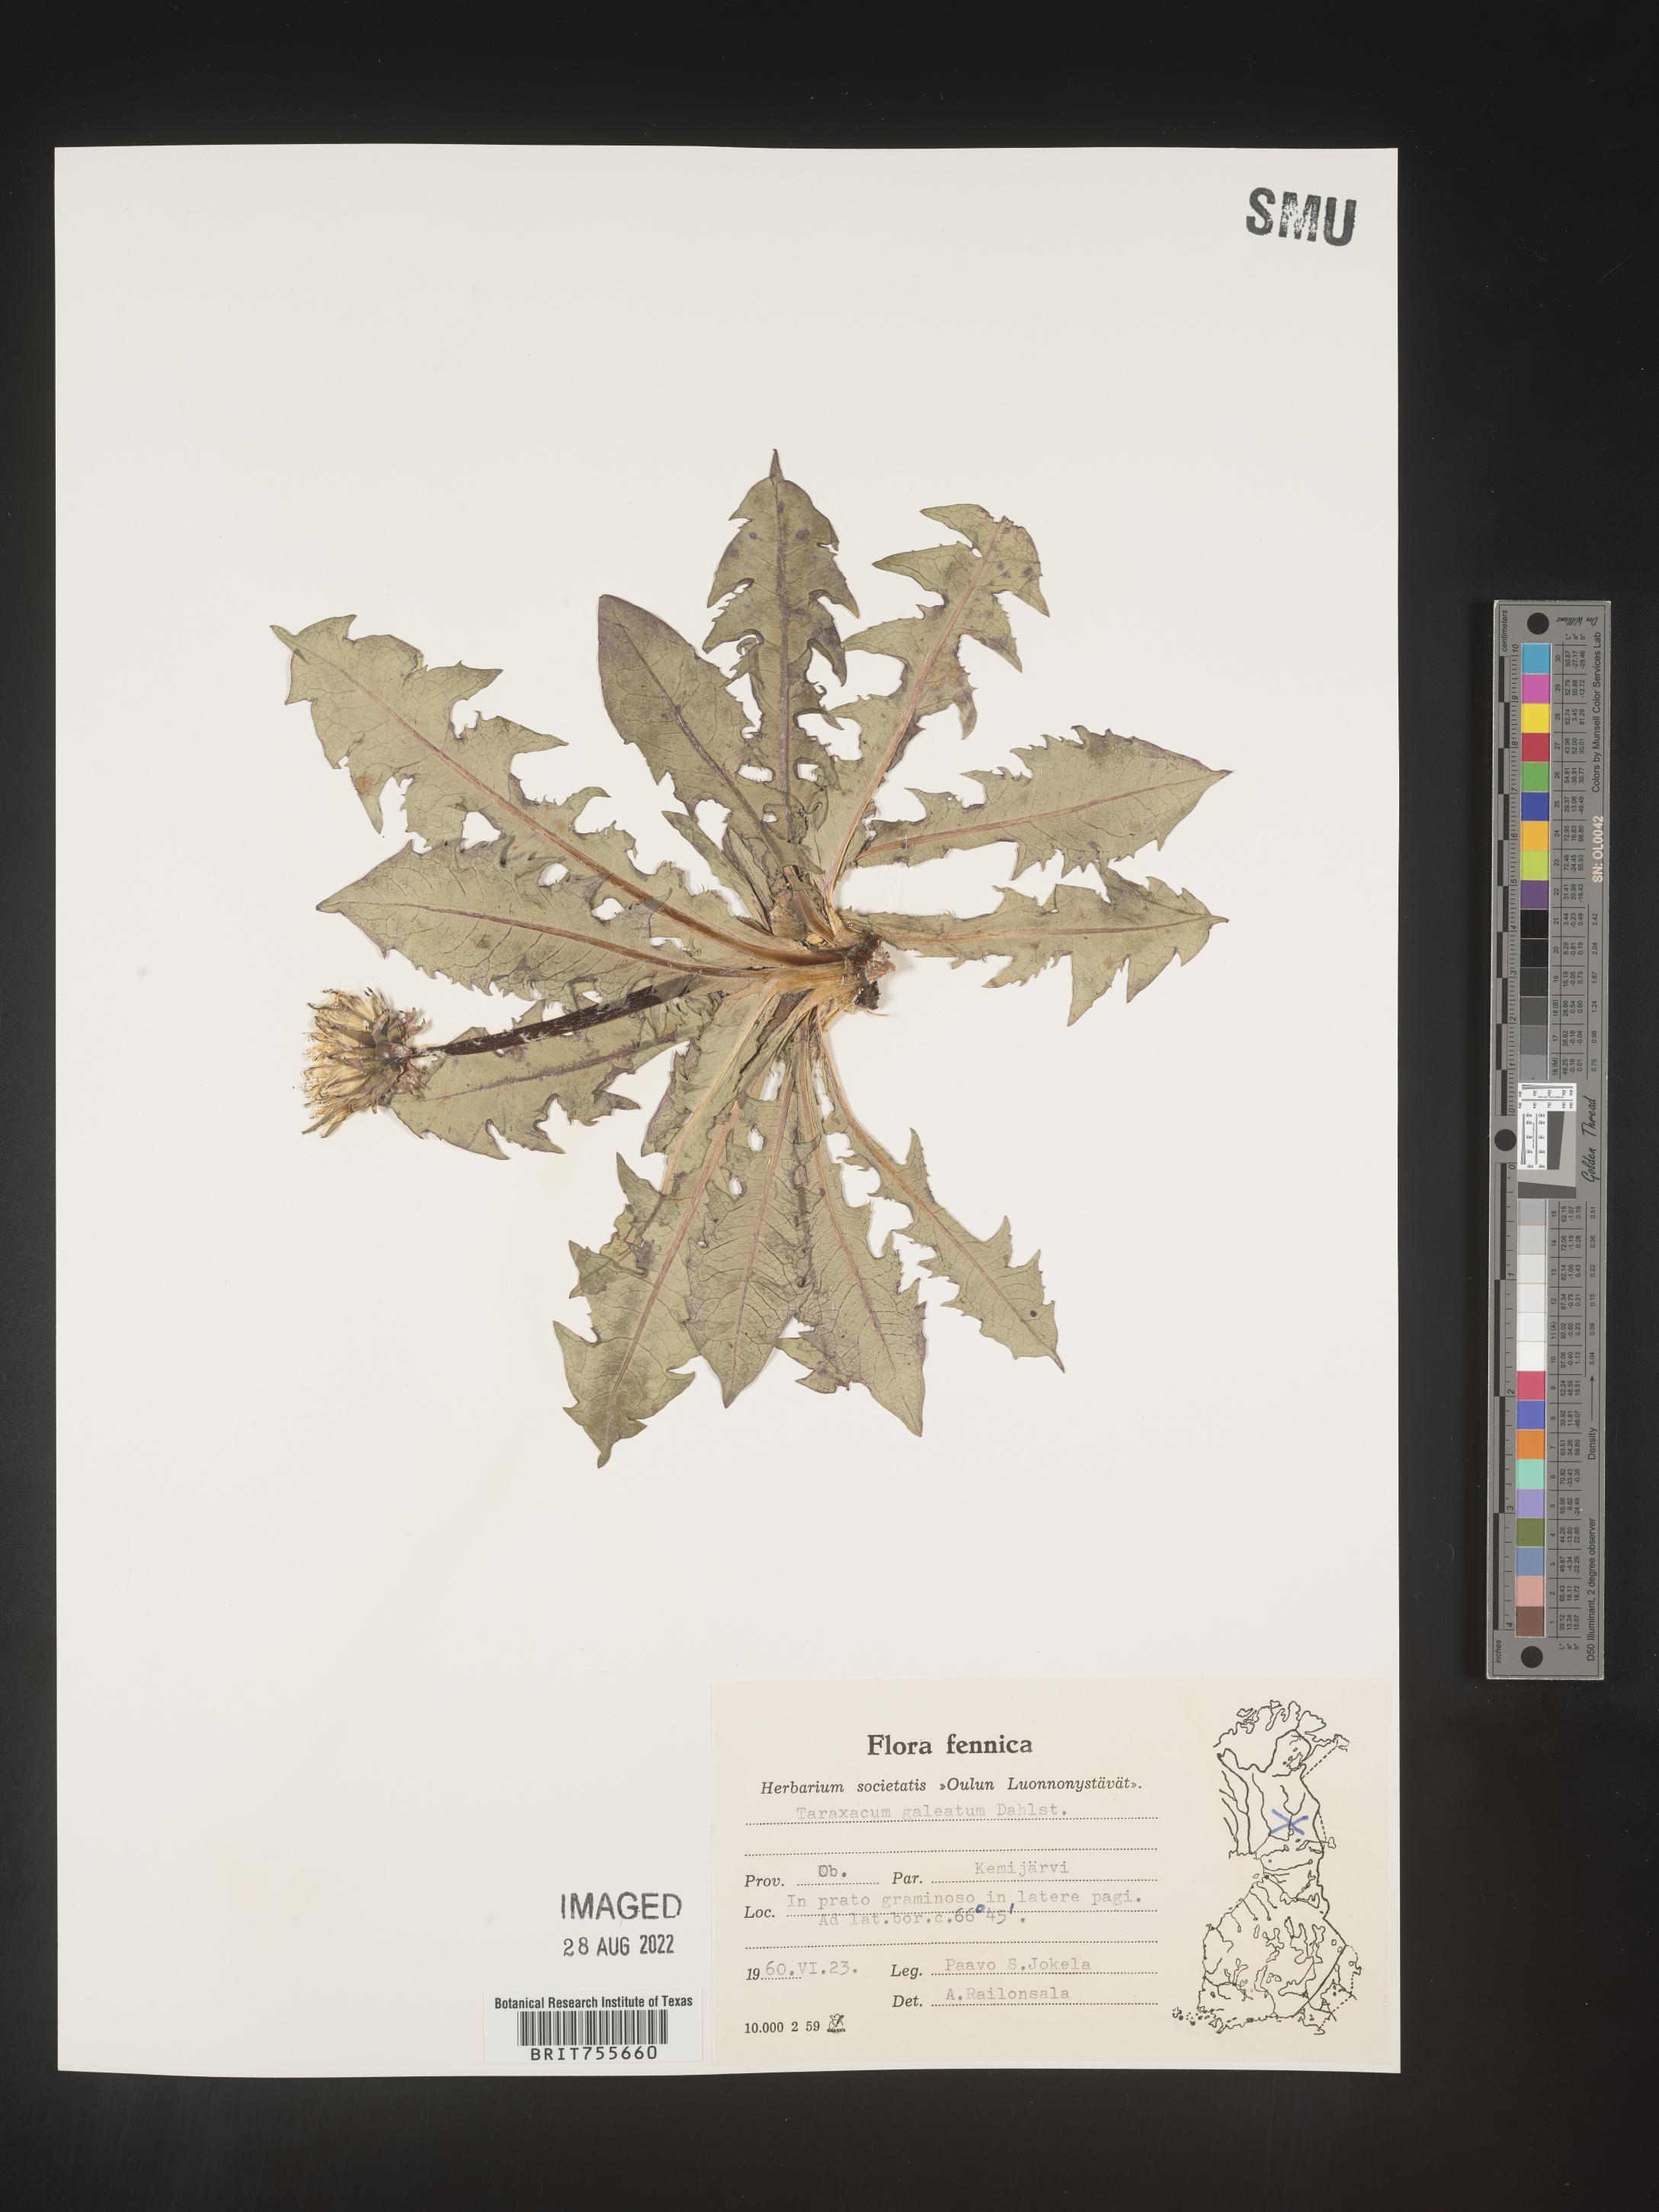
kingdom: Plantae
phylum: Tracheophyta
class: Magnoliopsida
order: Asterales
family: Asteraceae
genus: Taraxacum
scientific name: Taraxacum
